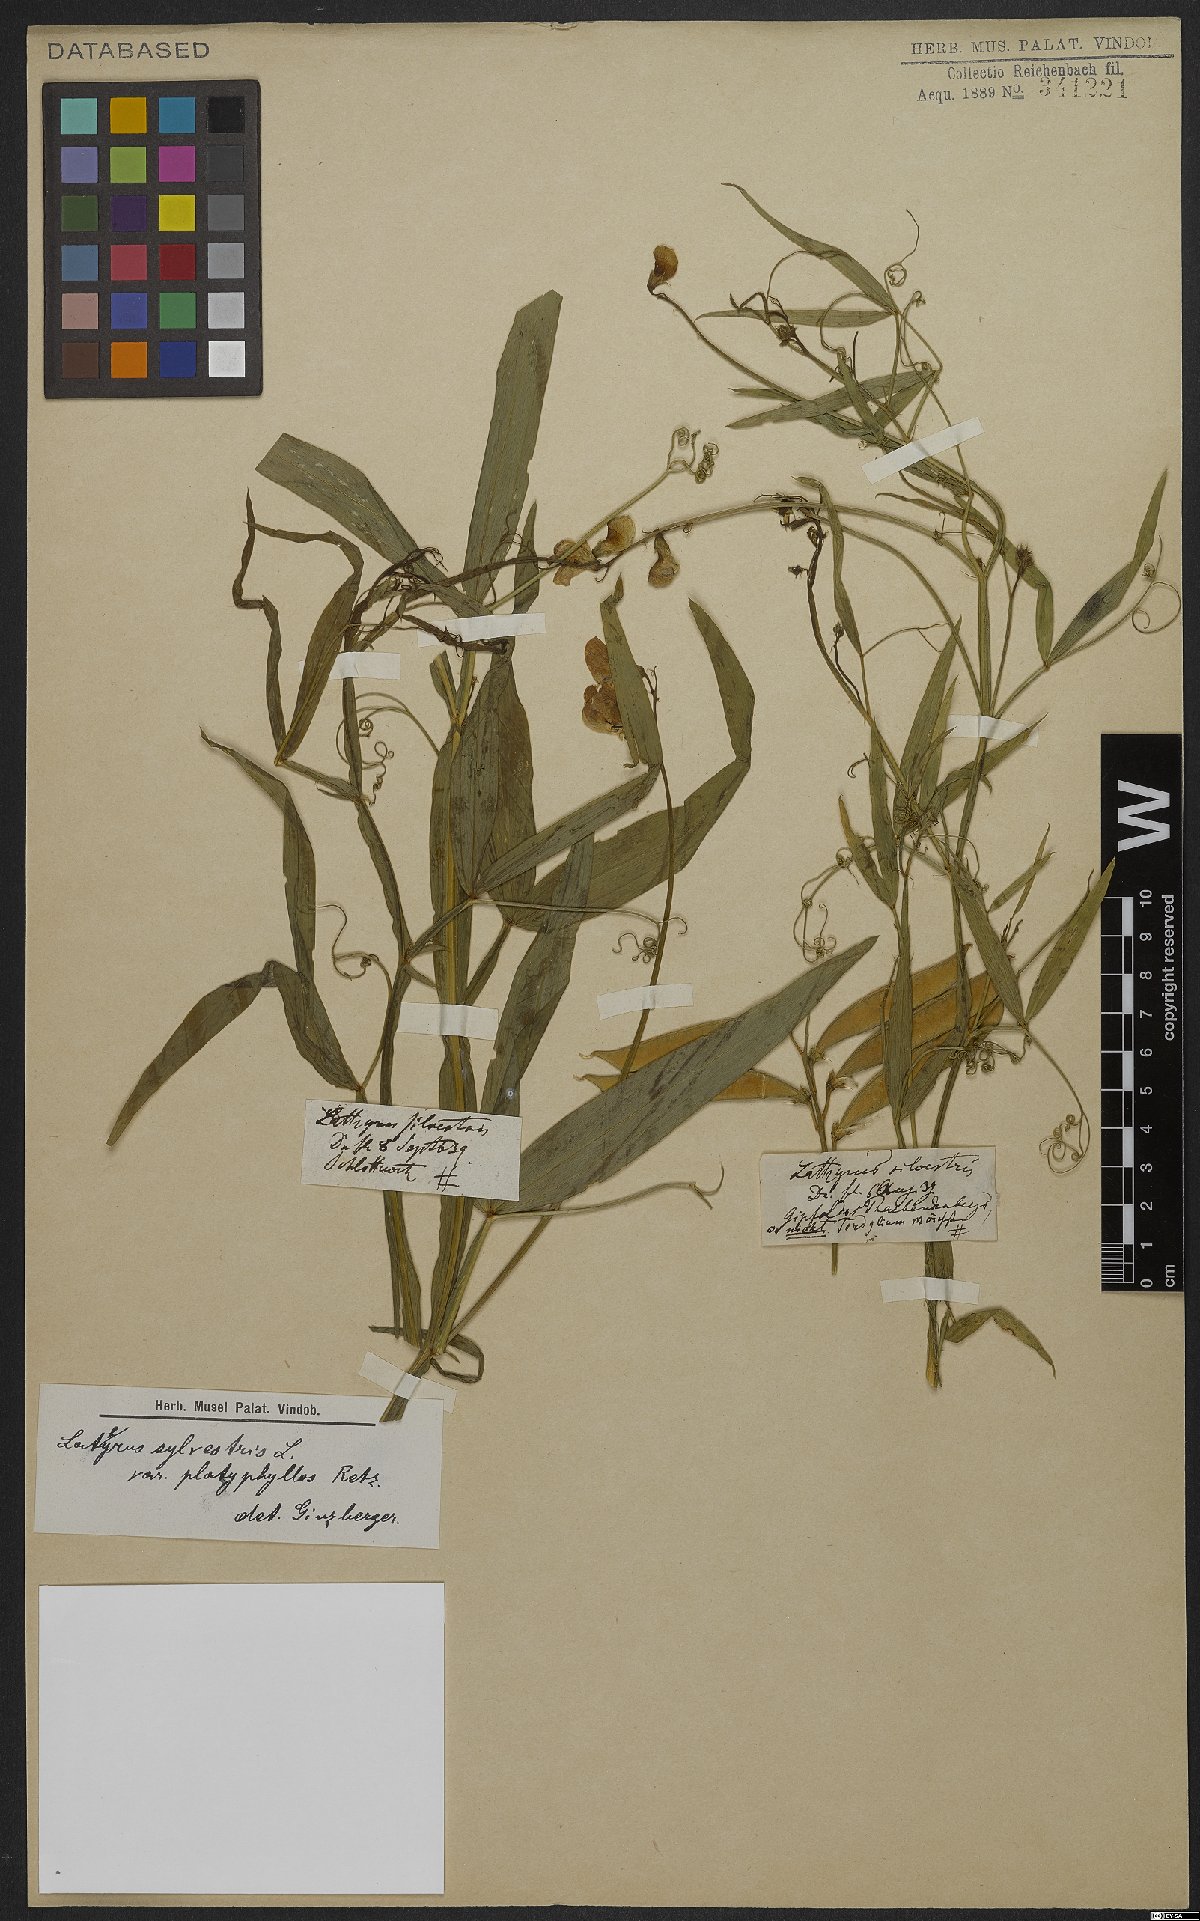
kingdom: Plantae
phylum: Tracheophyta
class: Magnoliopsida
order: Fabales
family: Fabaceae
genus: Lathyrus
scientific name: Lathyrus sylvestris
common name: Flat pea
